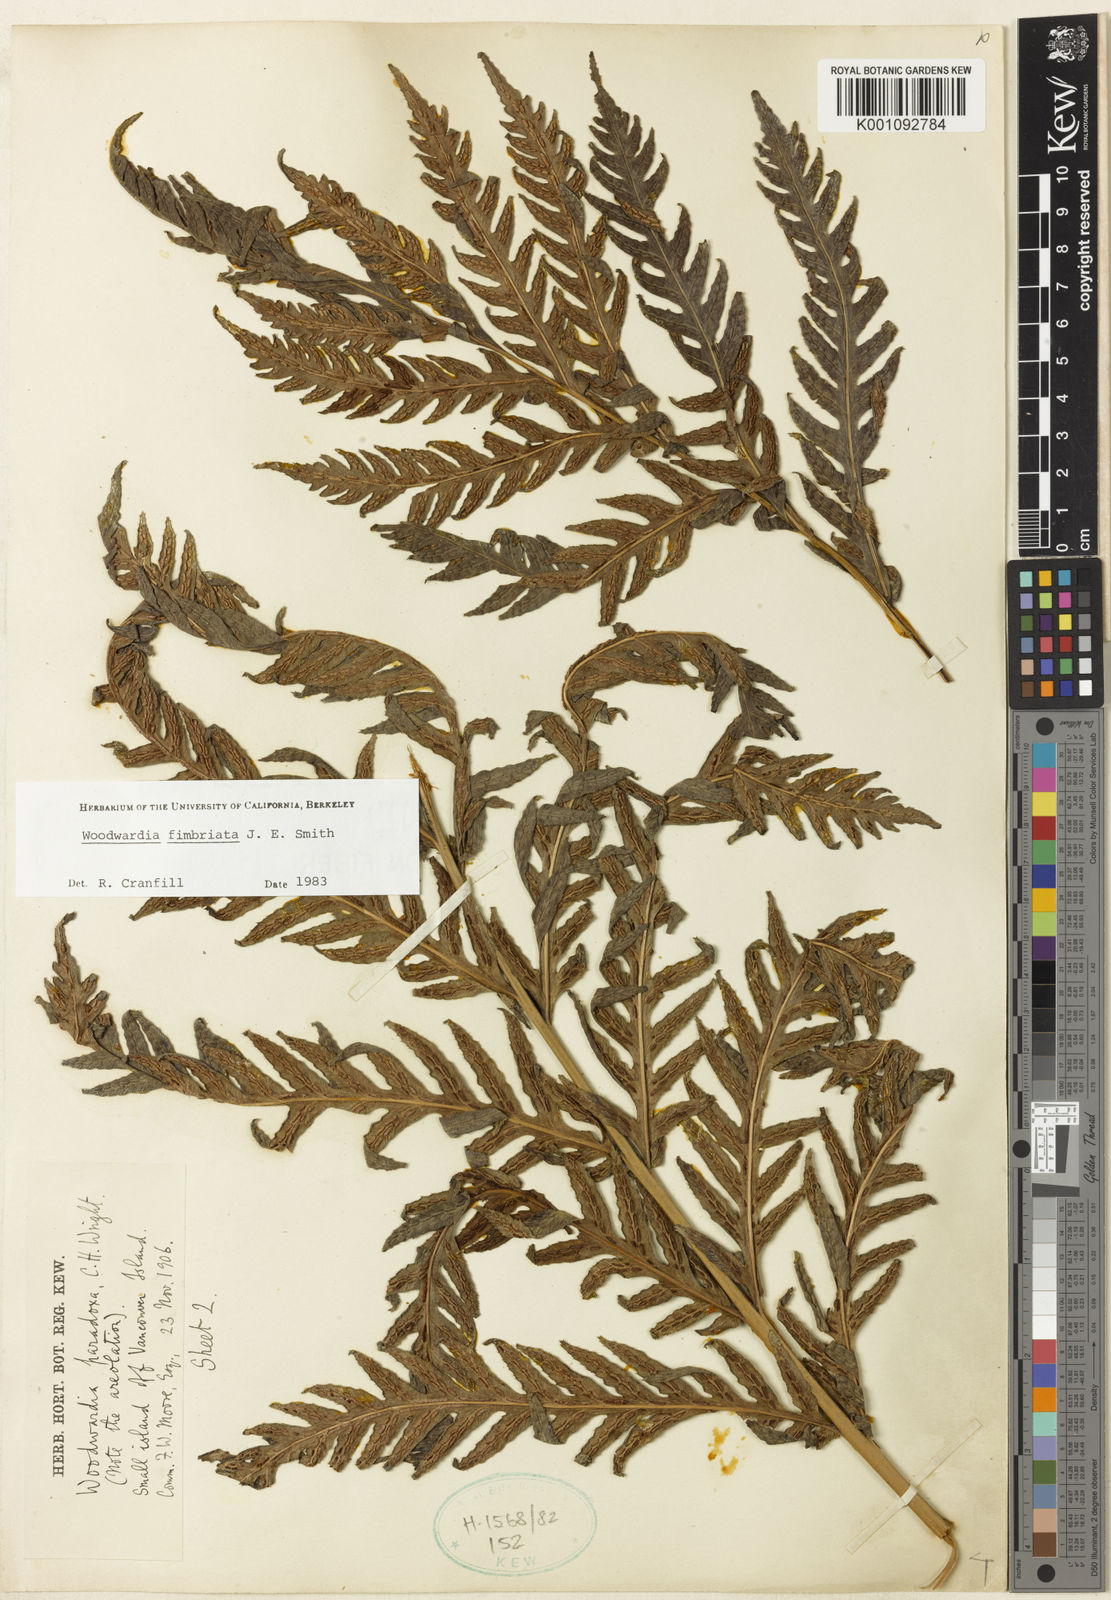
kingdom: Plantae
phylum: Tracheophyta
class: Polypodiopsida
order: Polypodiales
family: Blechnaceae
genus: Woodwardia
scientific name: Woodwardia fimbriata
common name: Giant chain fern
